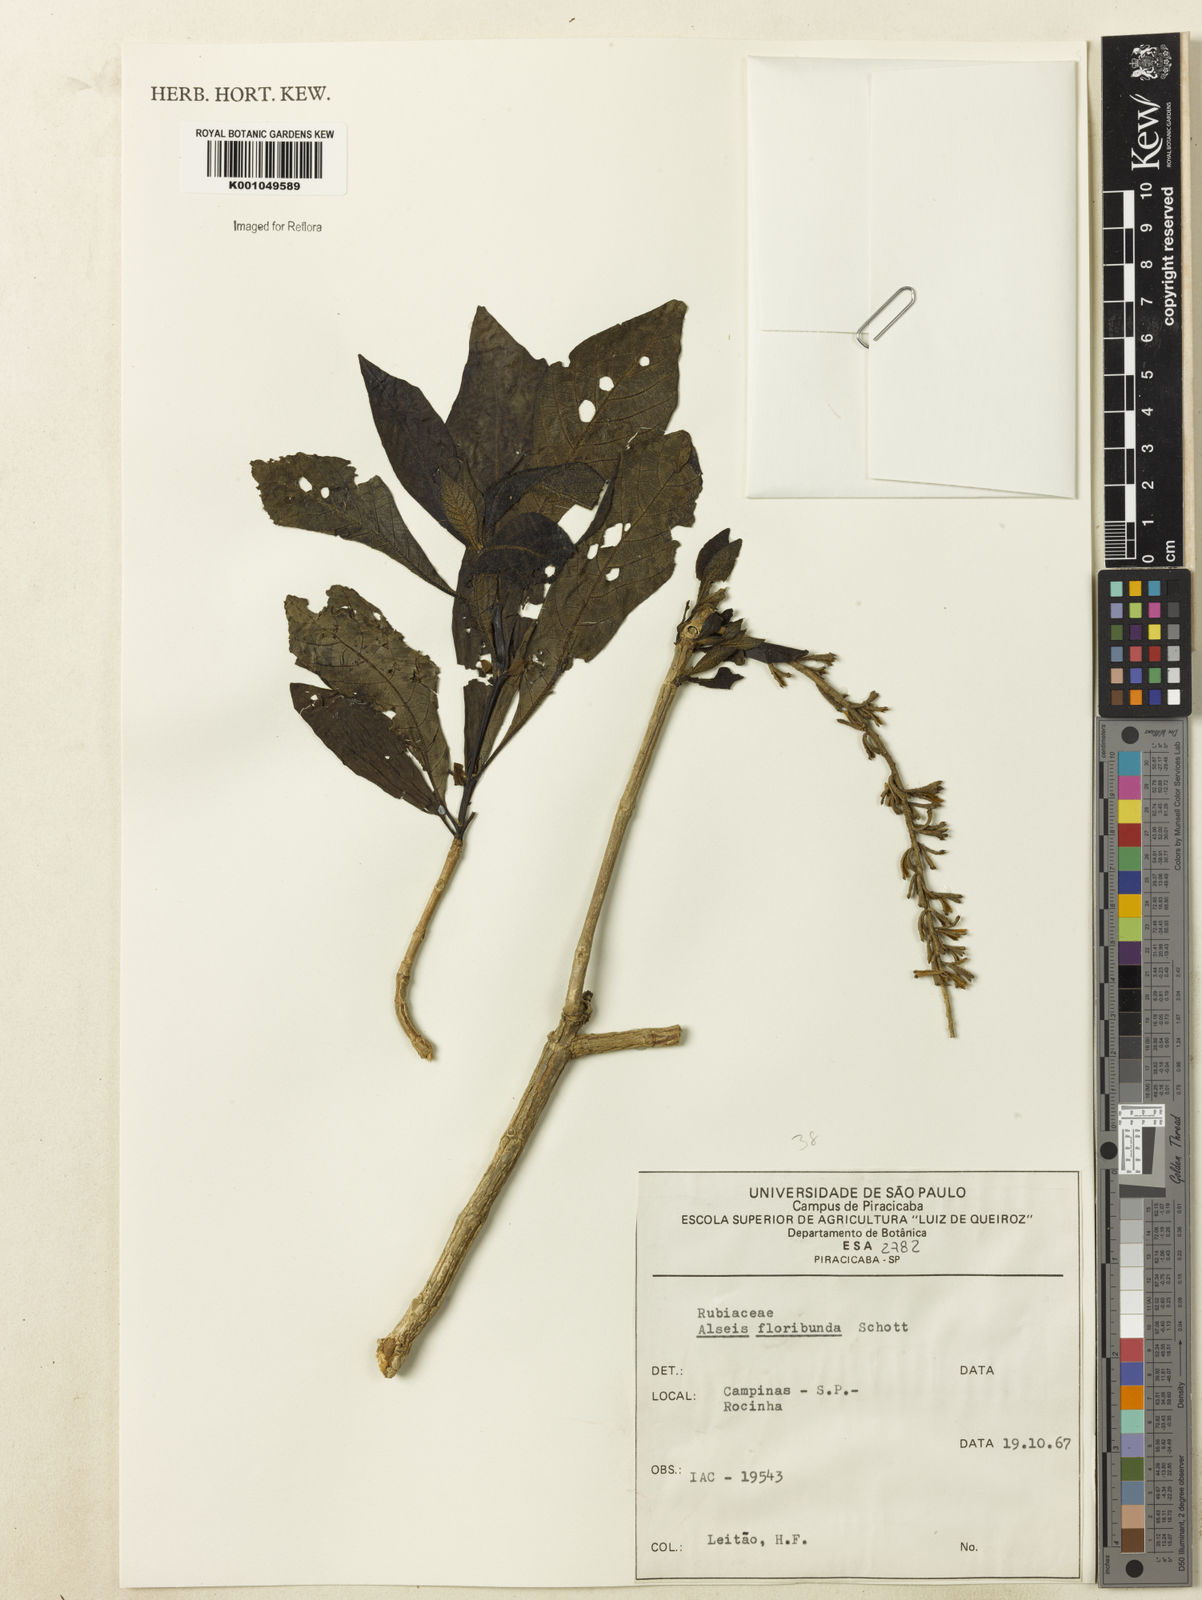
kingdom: Plantae
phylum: Tracheophyta
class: Magnoliopsida
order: Gentianales
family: Rubiaceae
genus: Alseis
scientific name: Alseis floribunda
